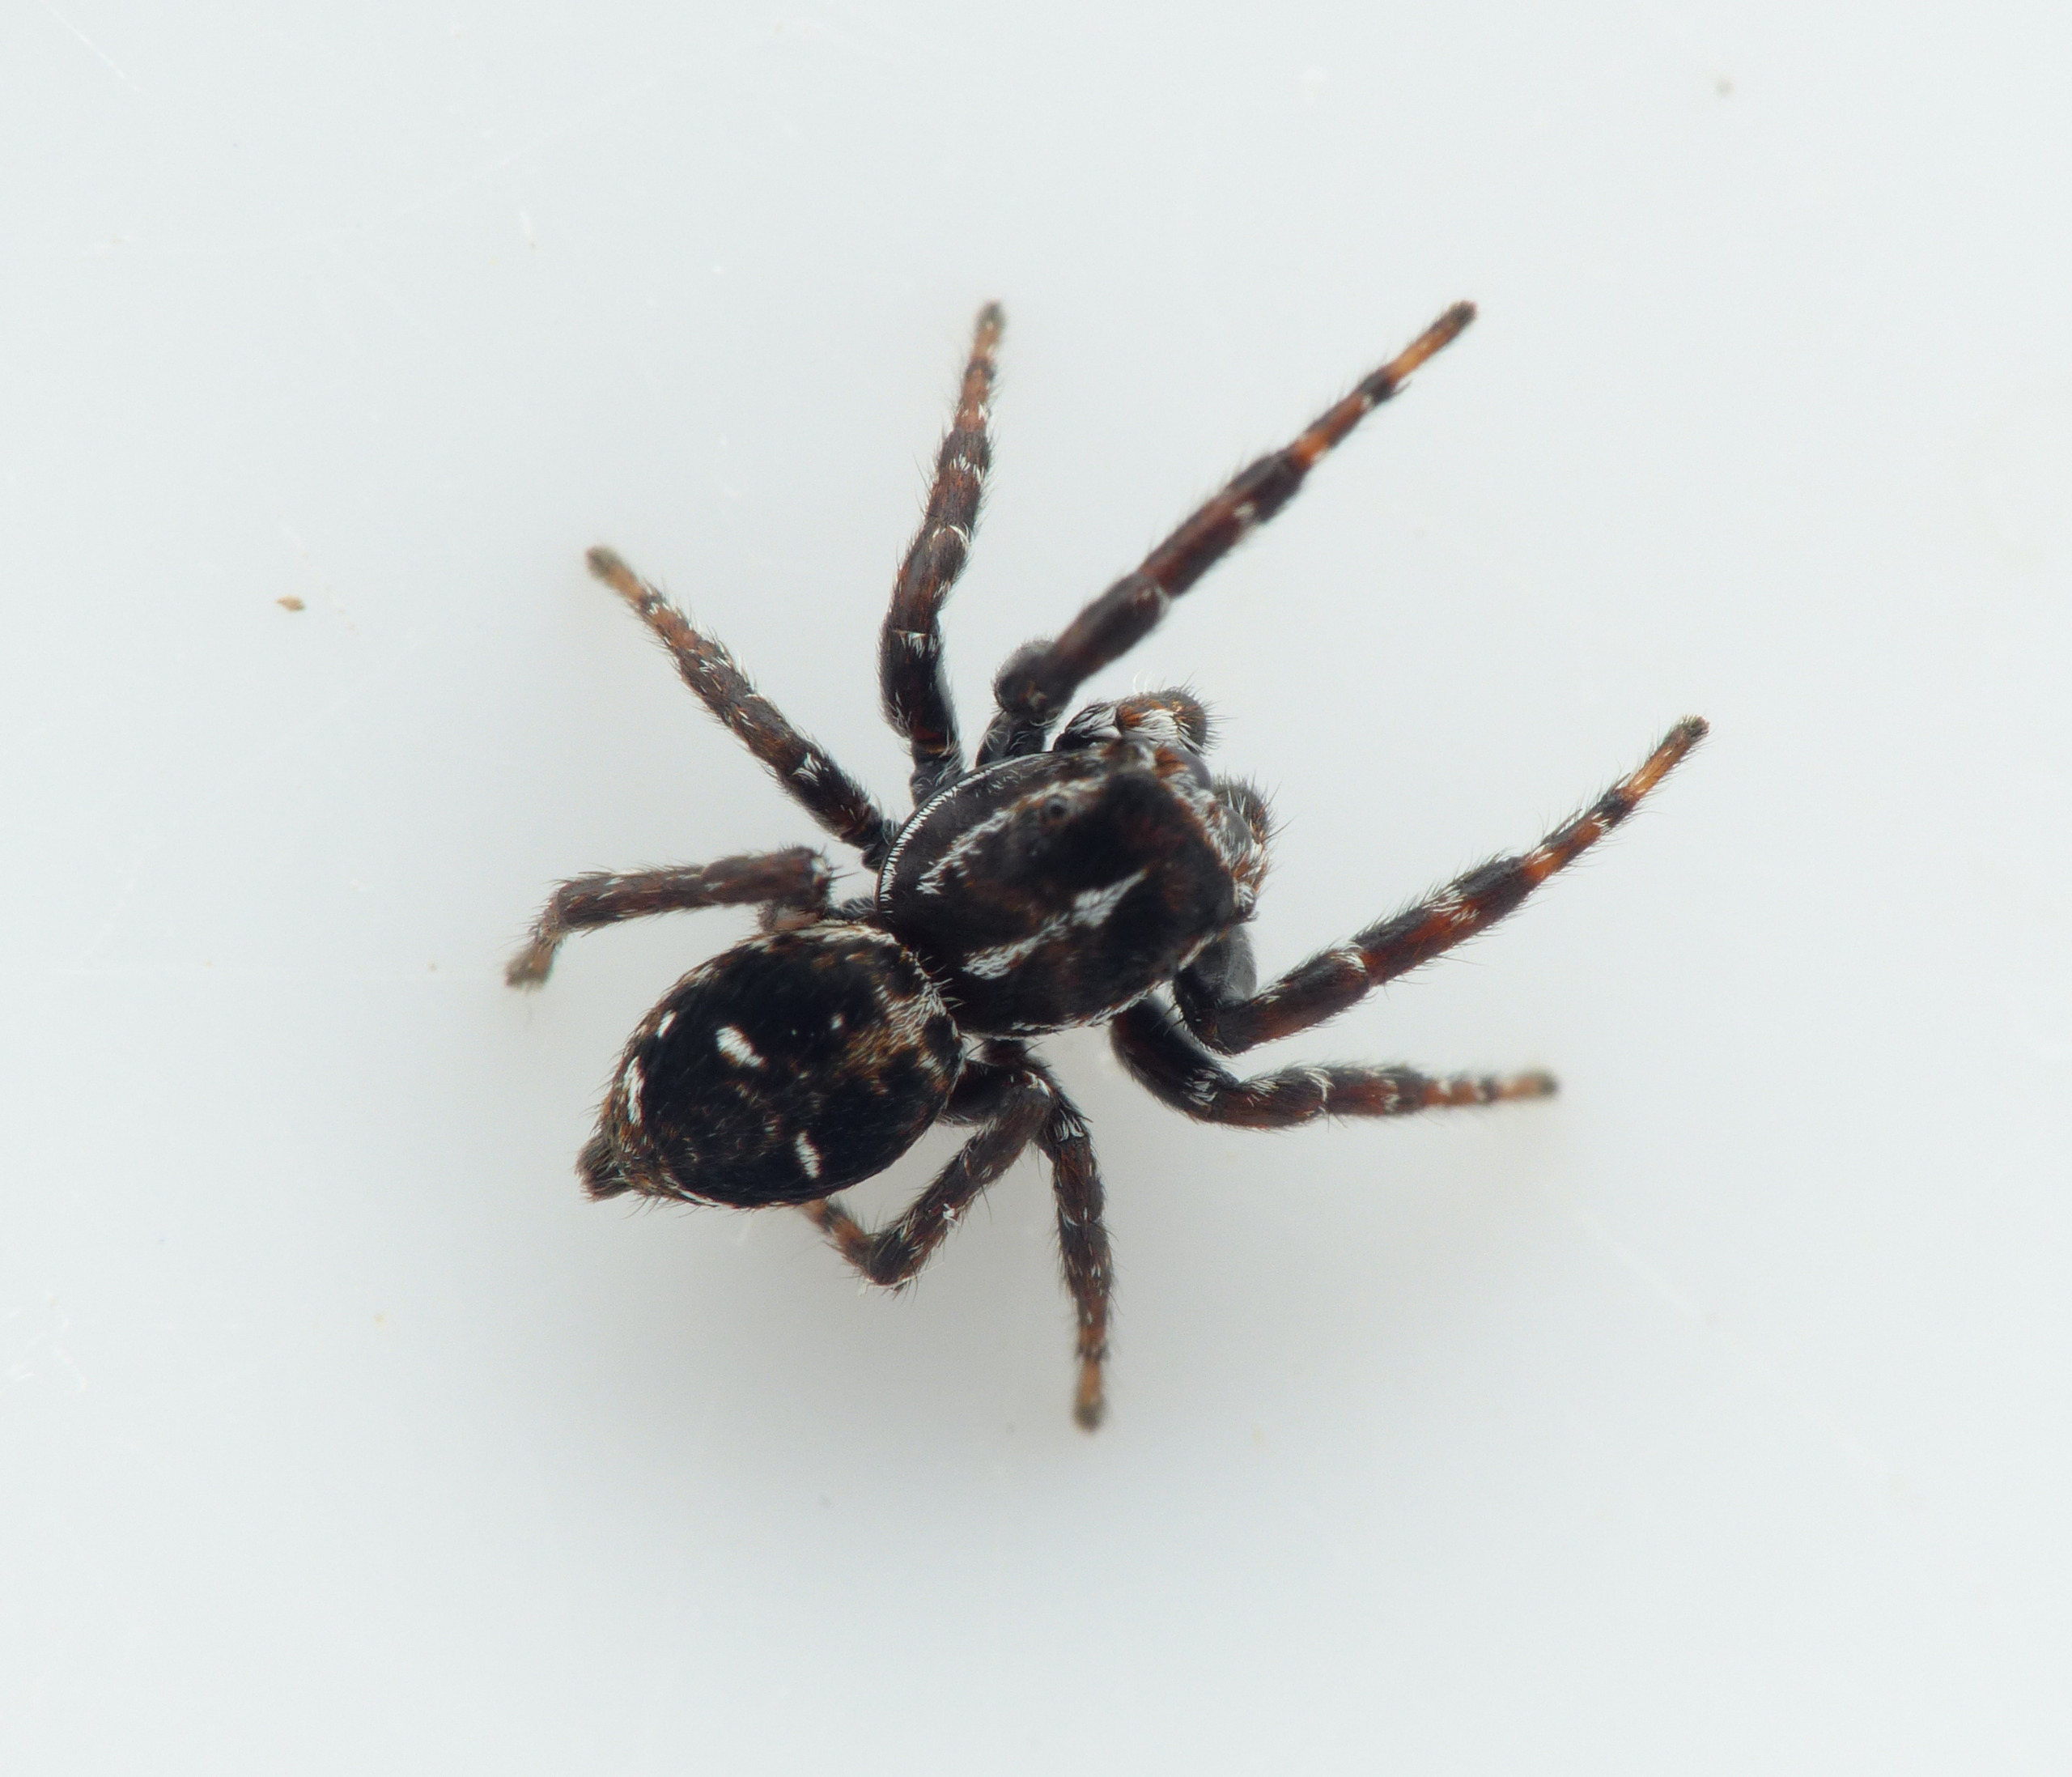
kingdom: Animalia
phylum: Arthropoda
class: Arachnida
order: Araneae
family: Salticidae
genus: Attulus
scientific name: Attulus floricola
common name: Mosespringer
